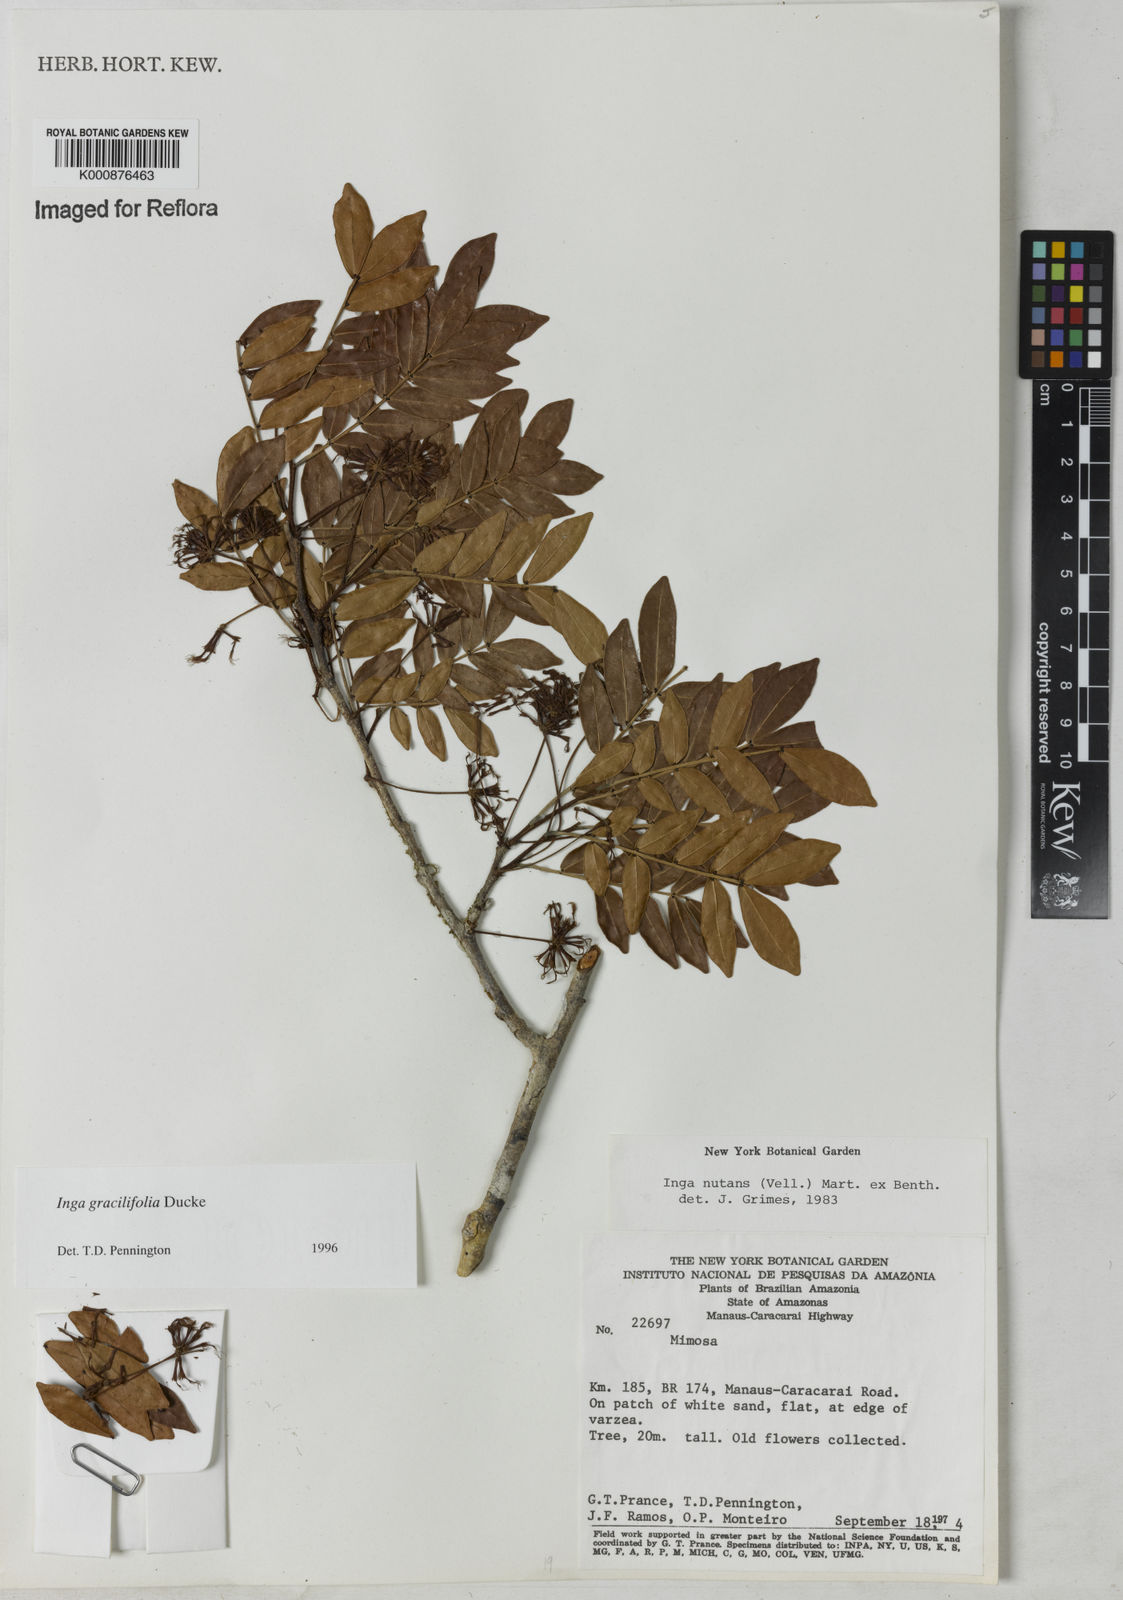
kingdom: Plantae
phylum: Tracheophyta
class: Magnoliopsida
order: Fabales
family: Fabaceae
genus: Inga
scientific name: Inga gracilifolia
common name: Gracefulleaf inga
